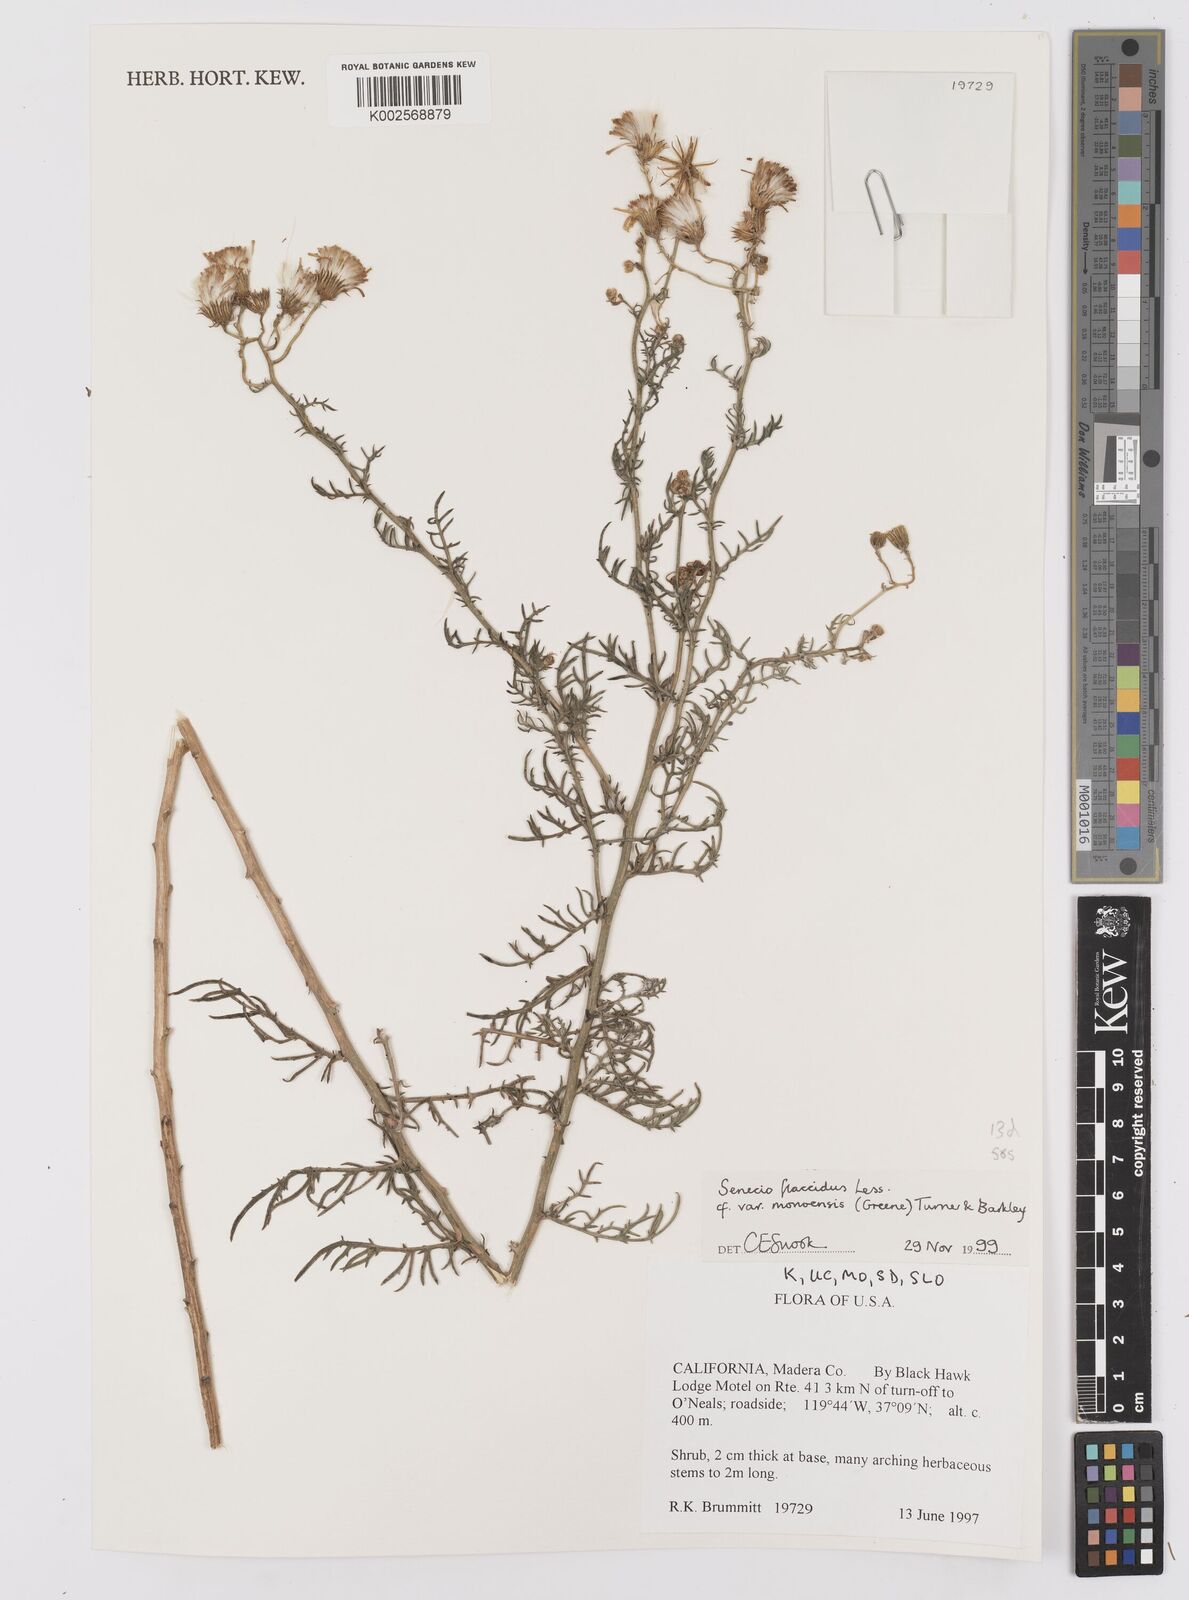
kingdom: Plantae
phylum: Tracheophyta
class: Magnoliopsida
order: Asterales
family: Asteraceae
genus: Senecio
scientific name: Senecio flaccidus
